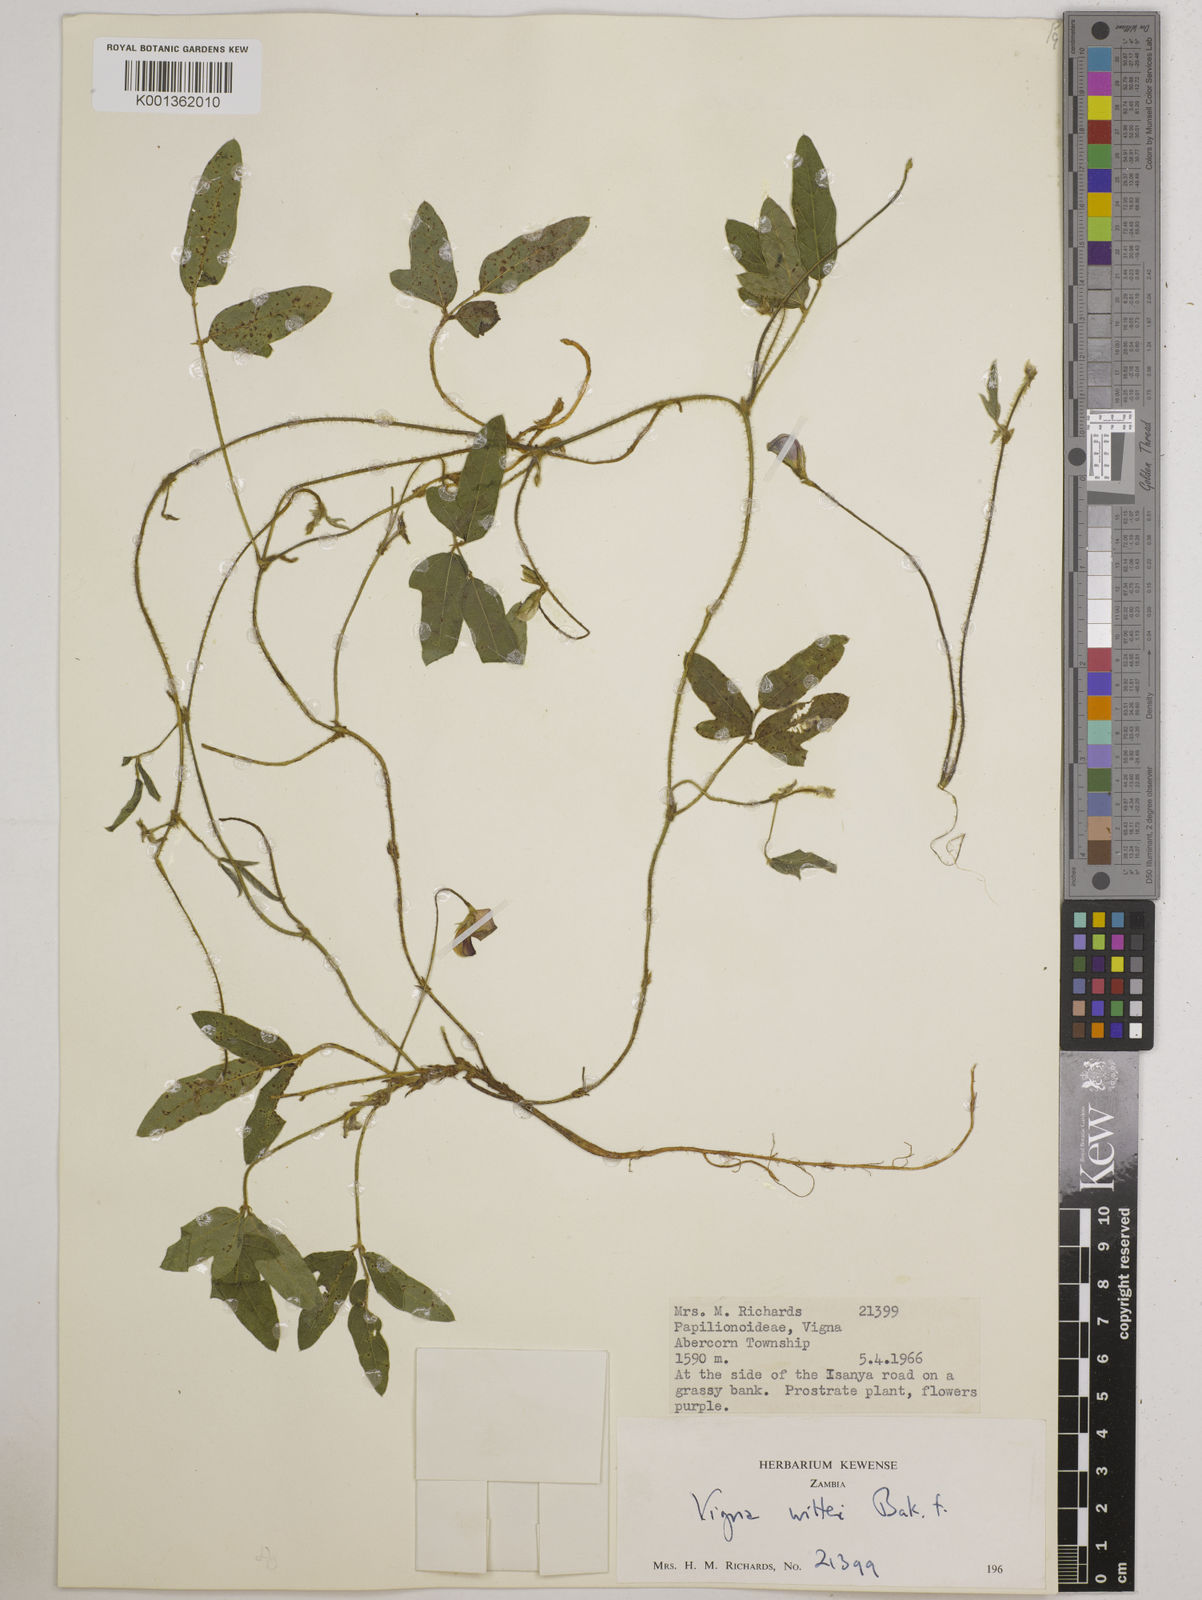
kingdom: Plantae
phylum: Tracheophyta
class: Magnoliopsida
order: Fabales
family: Fabaceae
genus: Vigna
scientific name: Vigna radicans
